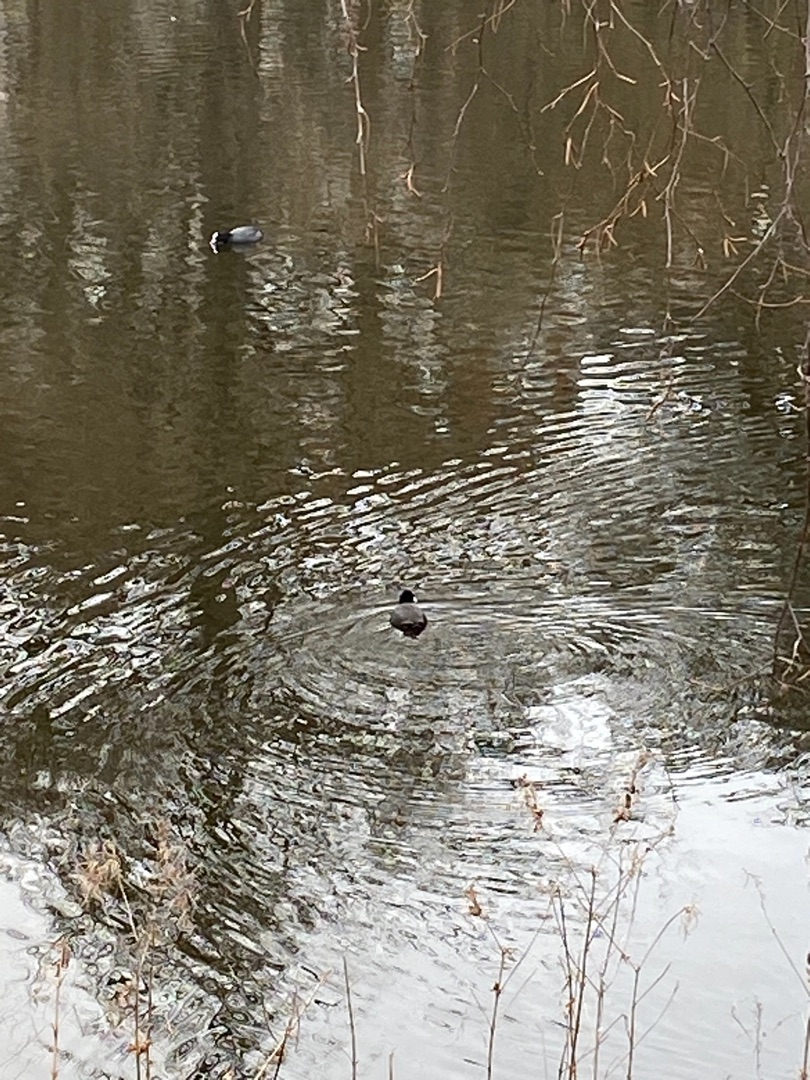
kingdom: Animalia
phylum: Chordata
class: Aves
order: Gruiformes
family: Rallidae
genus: Fulica
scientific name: Fulica atra
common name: Blishøne
